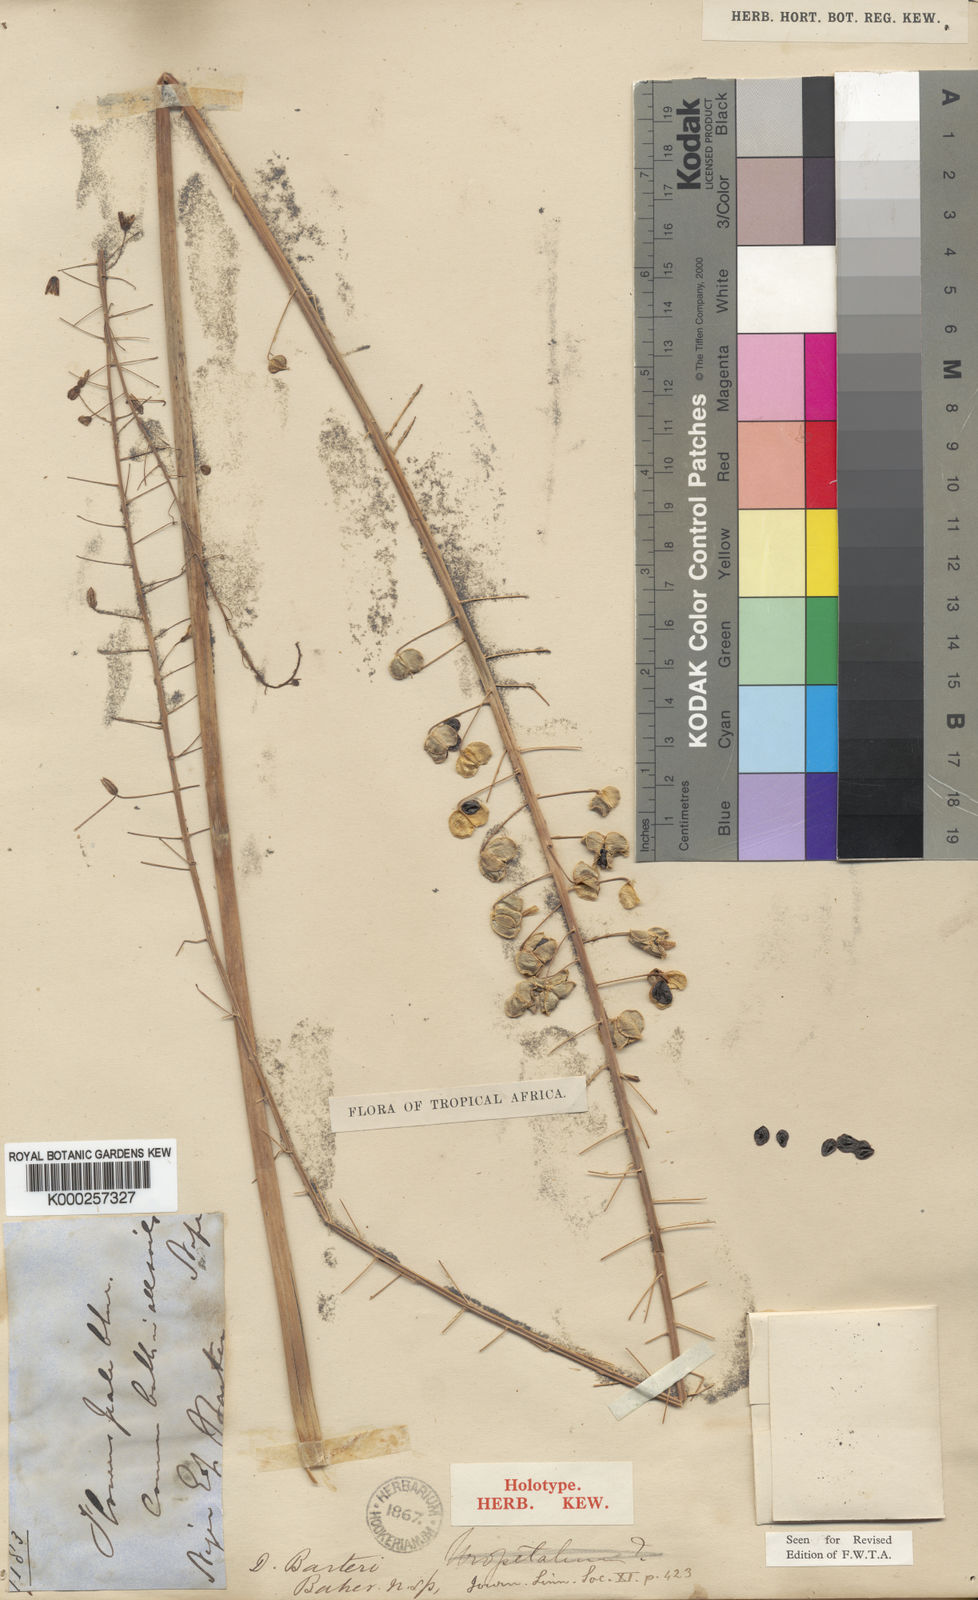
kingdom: Plantae
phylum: Tracheophyta
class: Liliopsida
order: Asparagales
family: Asparagaceae
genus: Drimia
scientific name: Drimia elata
